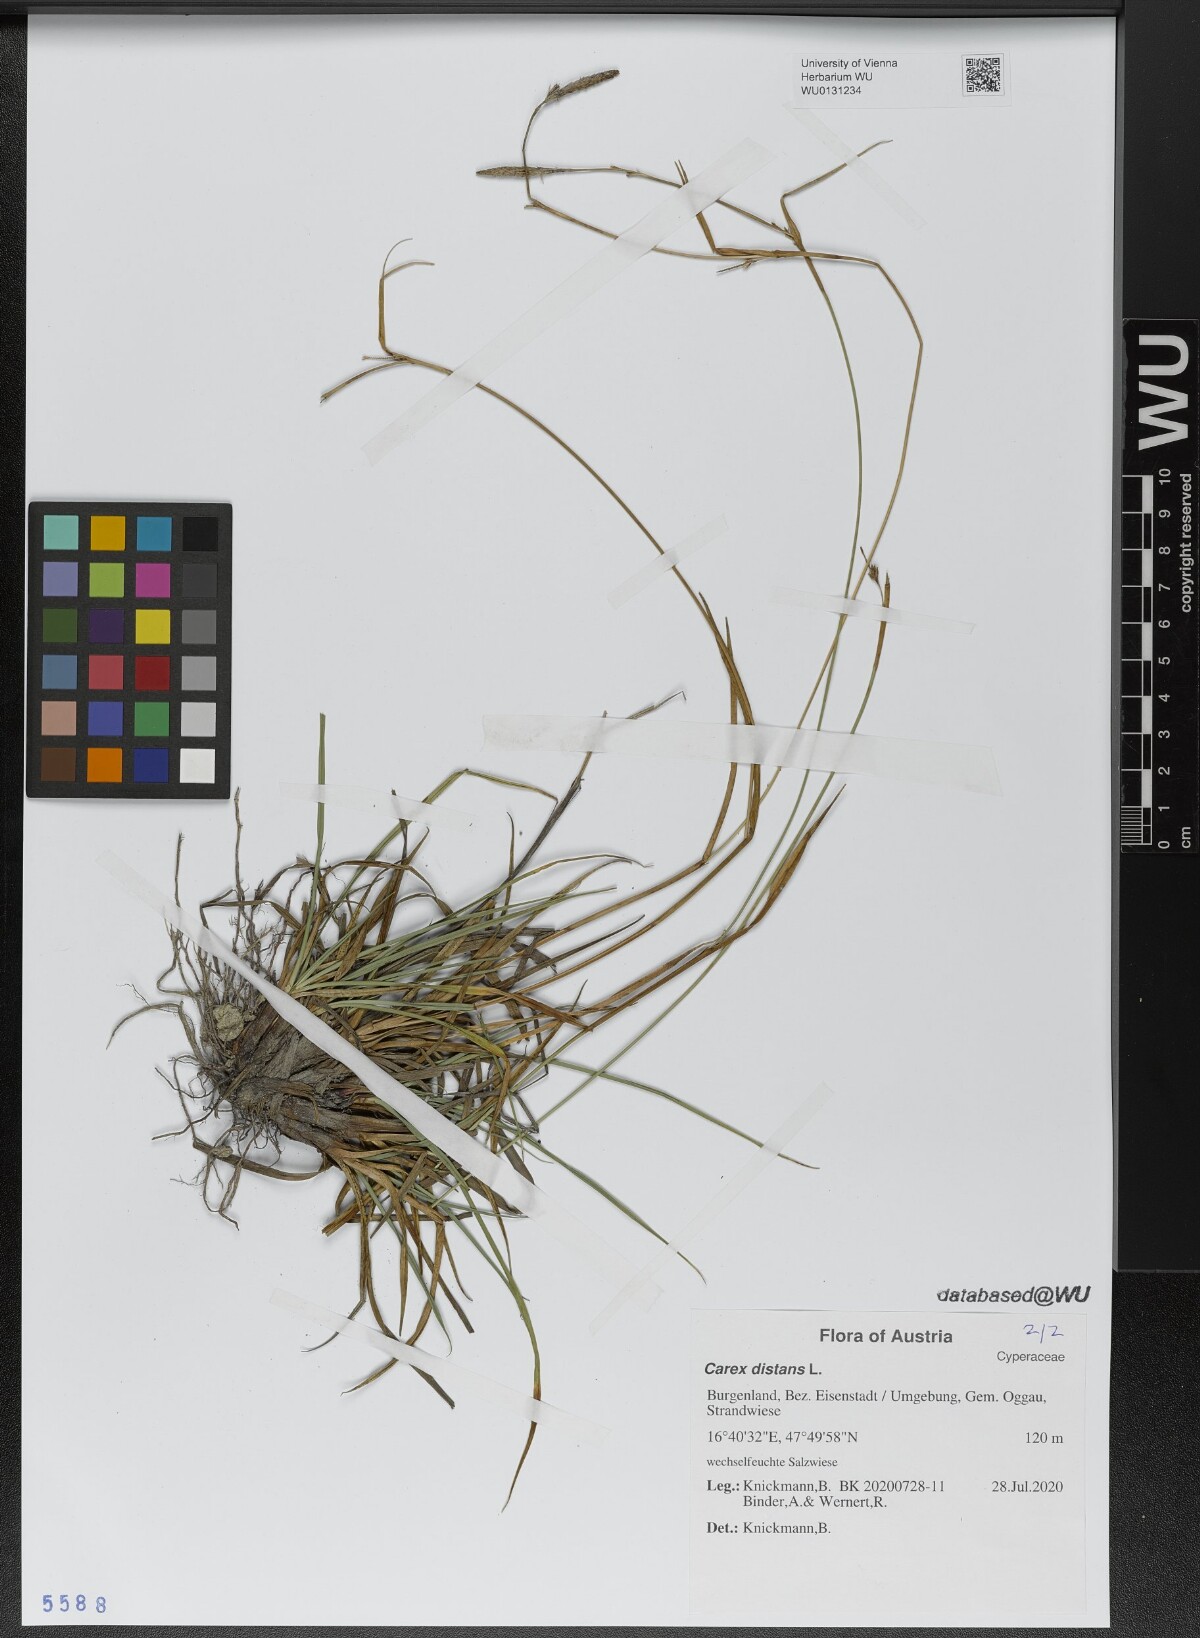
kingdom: Plantae
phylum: Tracheophyta
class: Liliopsida
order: Poales
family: Cyperaceae
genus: Carex
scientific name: Carex distans
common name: Distant sedge
